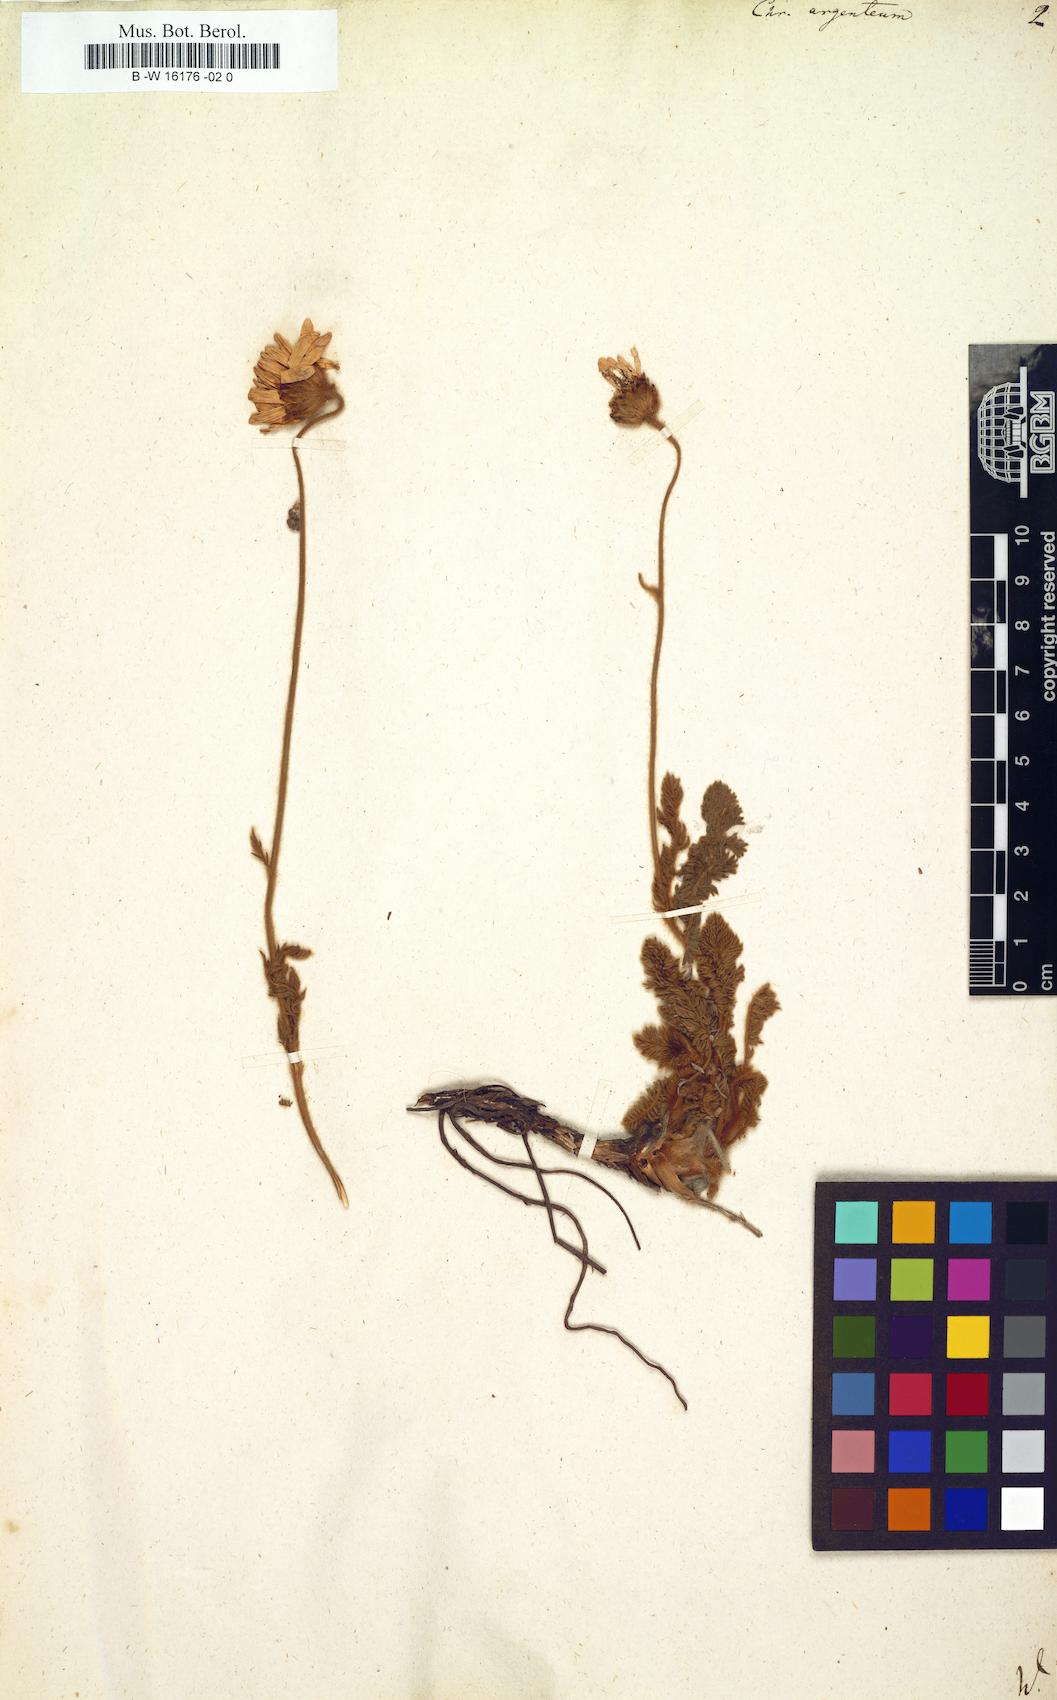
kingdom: Plantae
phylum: Tracheophyta
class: Magnoliopsida
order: Asterales
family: Asteraceae
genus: Tanacetum
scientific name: Tanacetum
